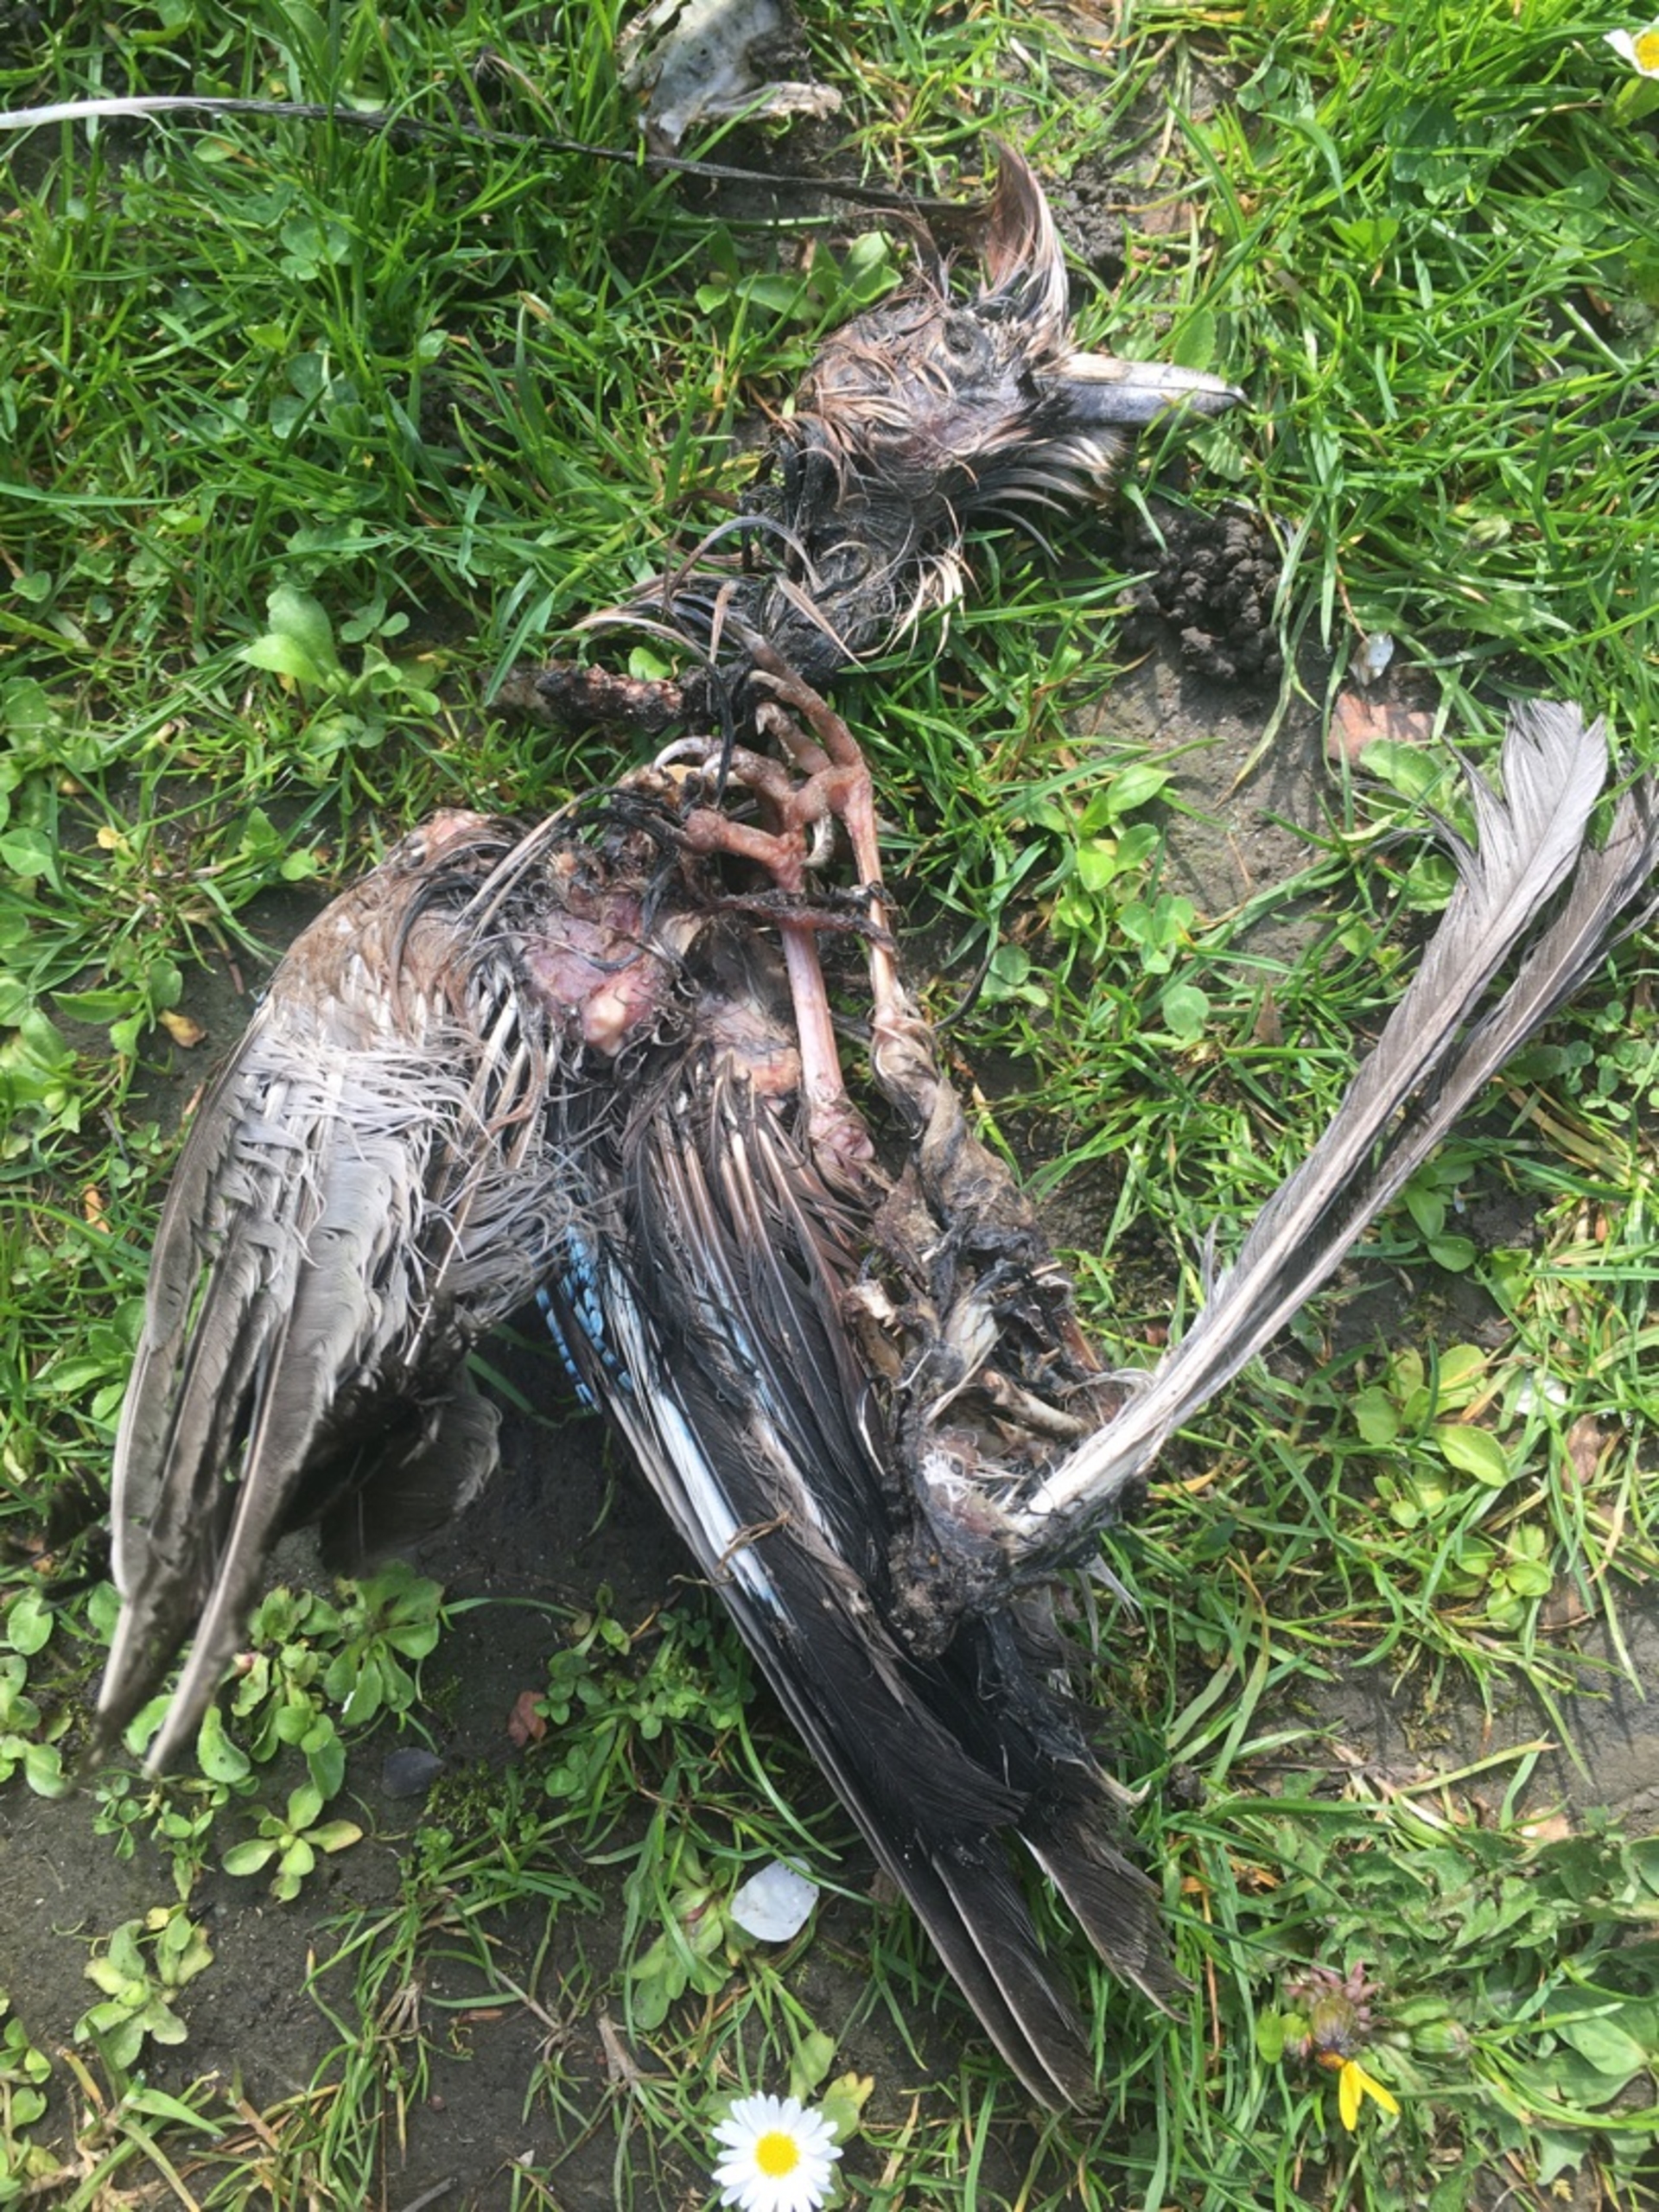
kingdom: Animalia
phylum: Chordata
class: Aves
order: Passeriformes
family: Corvidae
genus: Garrulus
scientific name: Garrulus glandarius
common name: Skovskade
